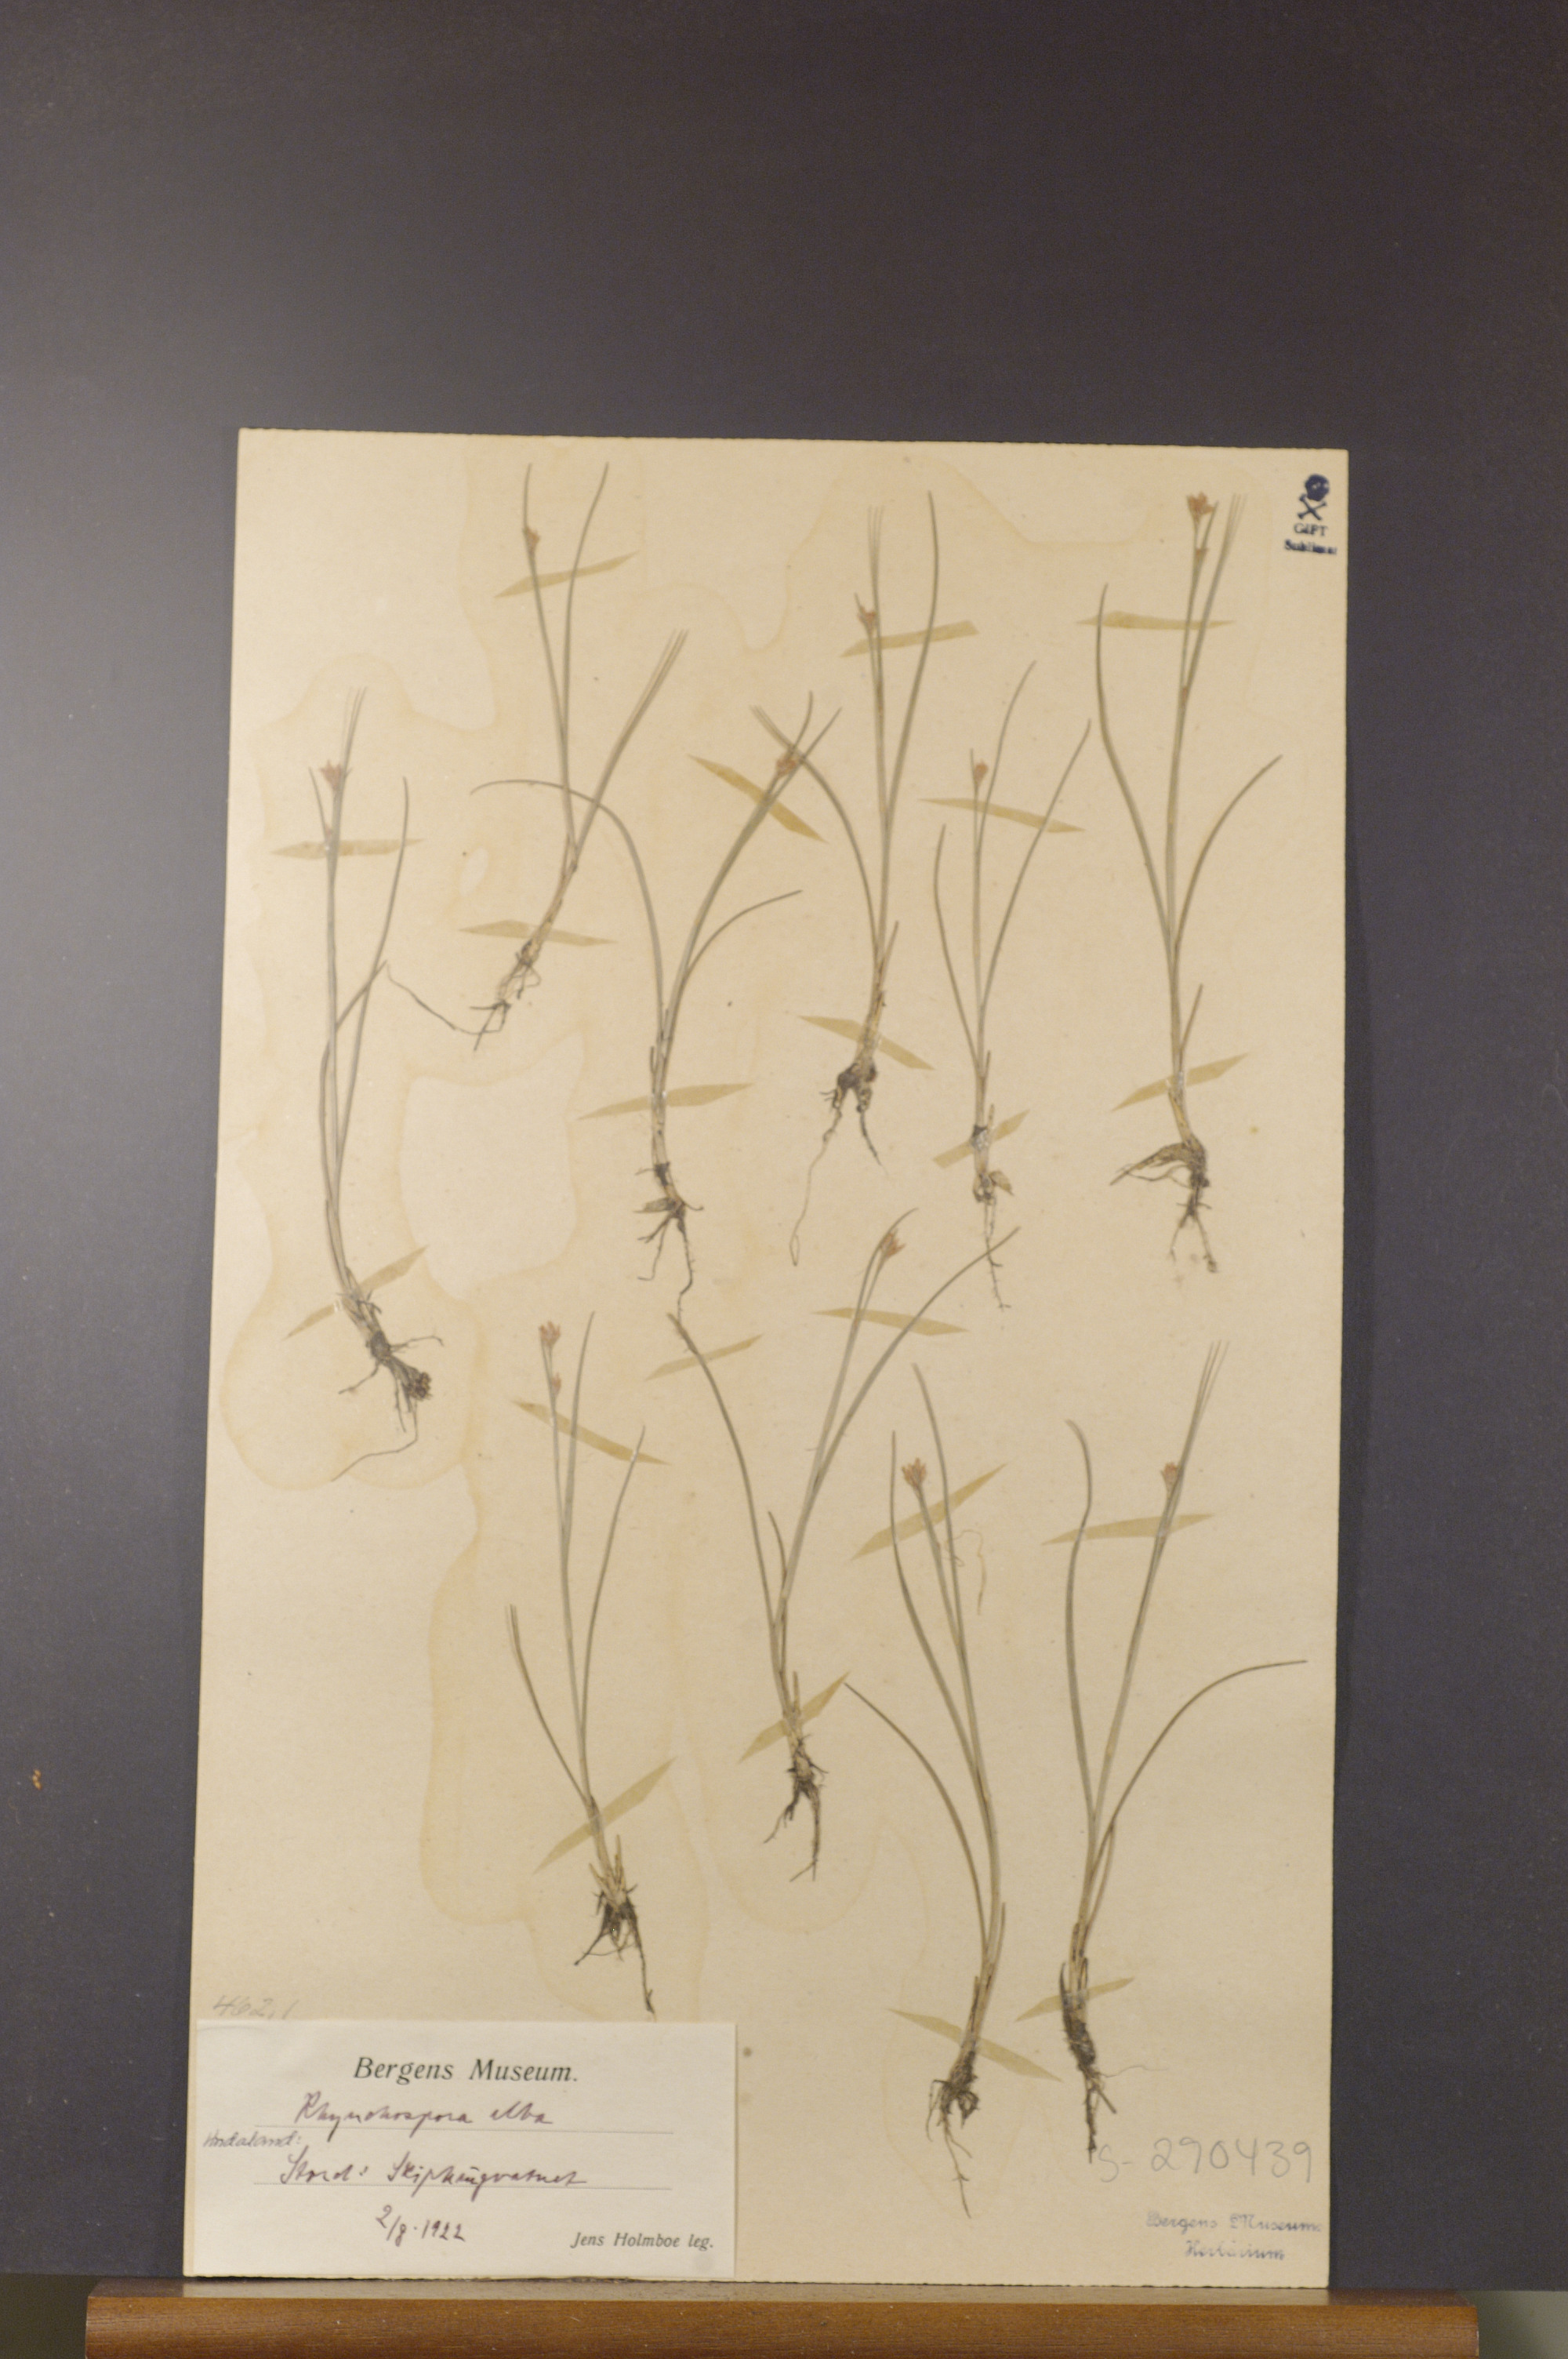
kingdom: Plantae
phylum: Tracheophyta
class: Liliopsida
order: Poales
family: Cyperaceae
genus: Rhynchospora
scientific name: Rhynchospora alba
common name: White beak-sedge
